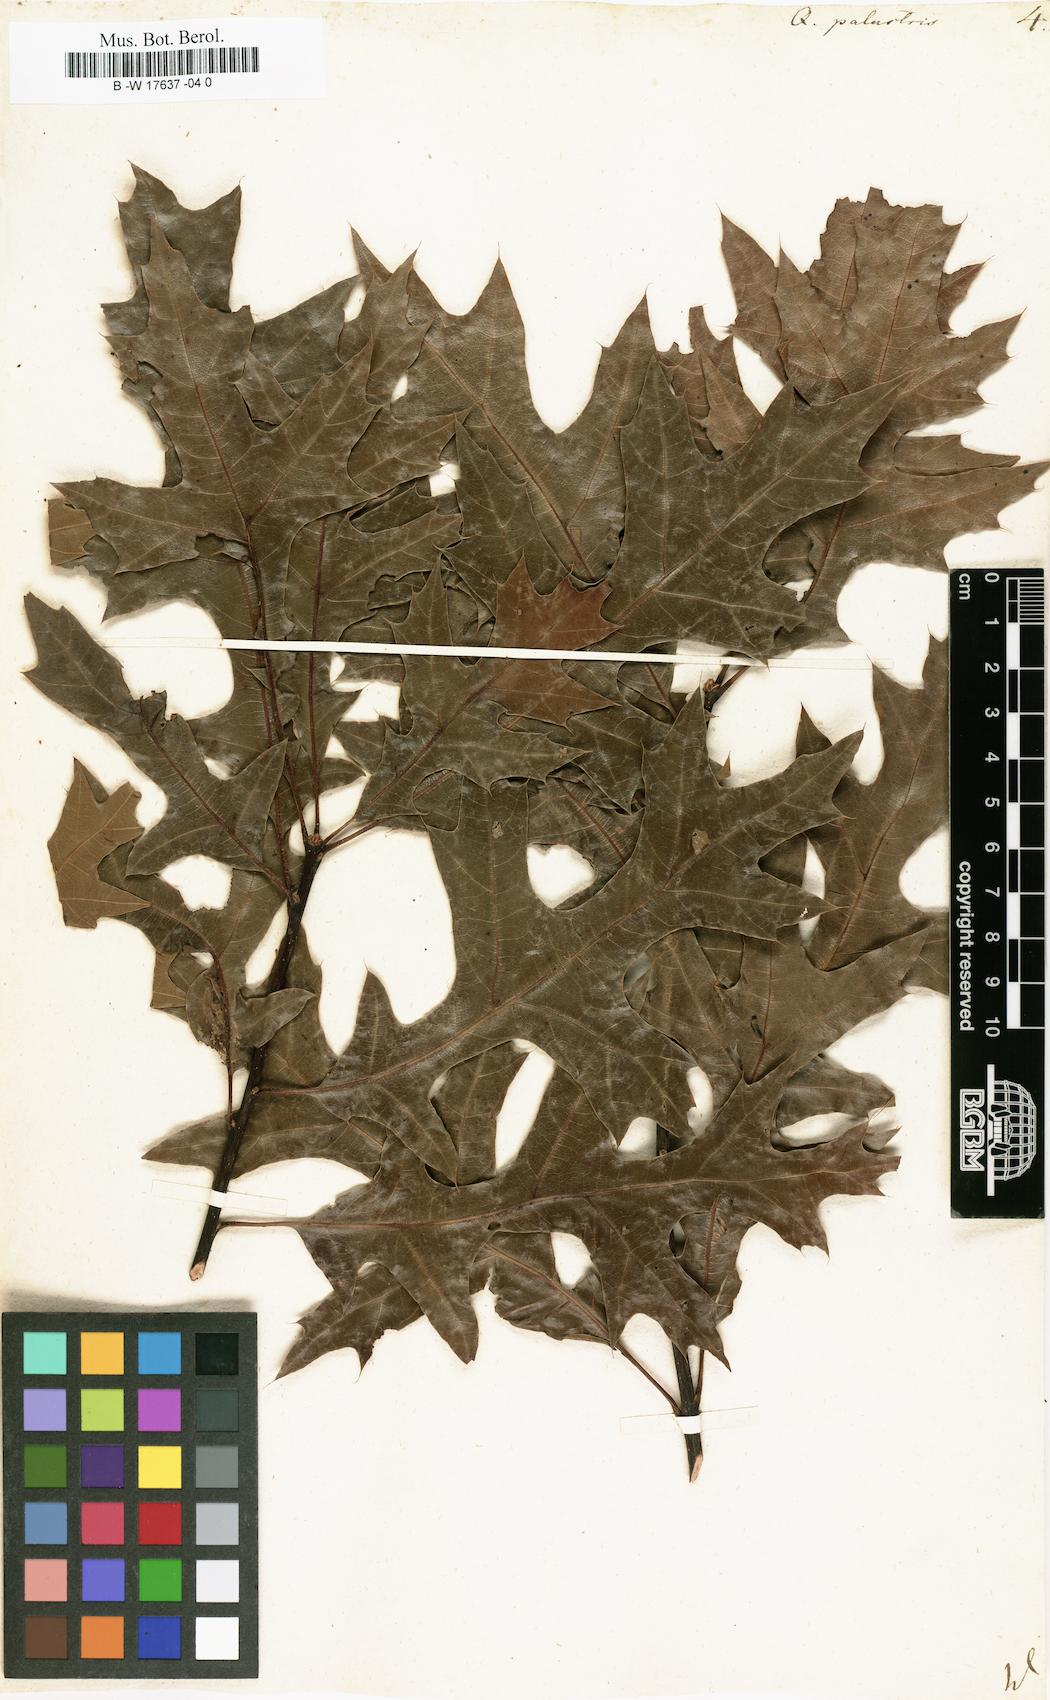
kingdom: Plantae
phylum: Tracheophyta
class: Magnoliopsida
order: Fagales
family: Fagaceae
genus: Quercus
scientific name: Quercus palustris
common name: Pin oak
